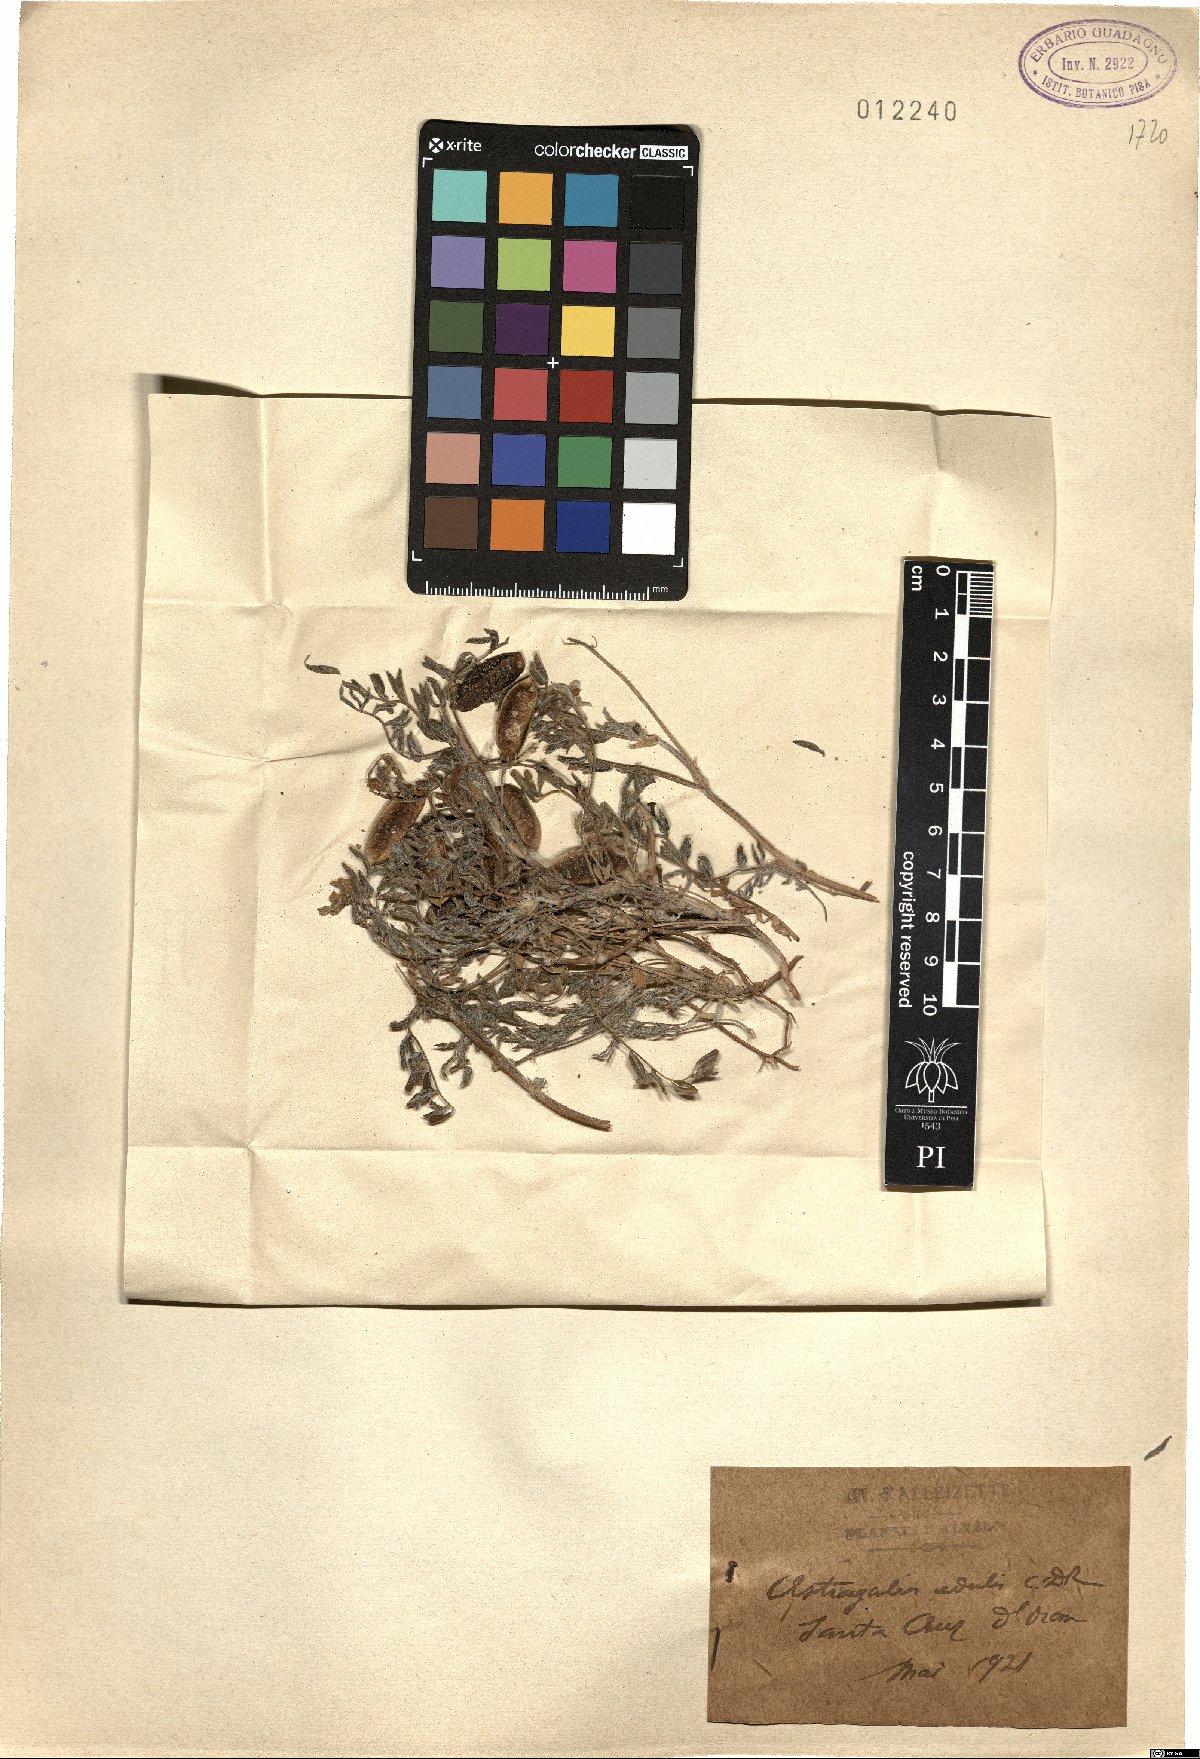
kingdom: Plantae
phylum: Tracheophyta
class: Magnoliopsida
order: Fabales
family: Fabaceae
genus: Astragalus
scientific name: Astragalus edulis
